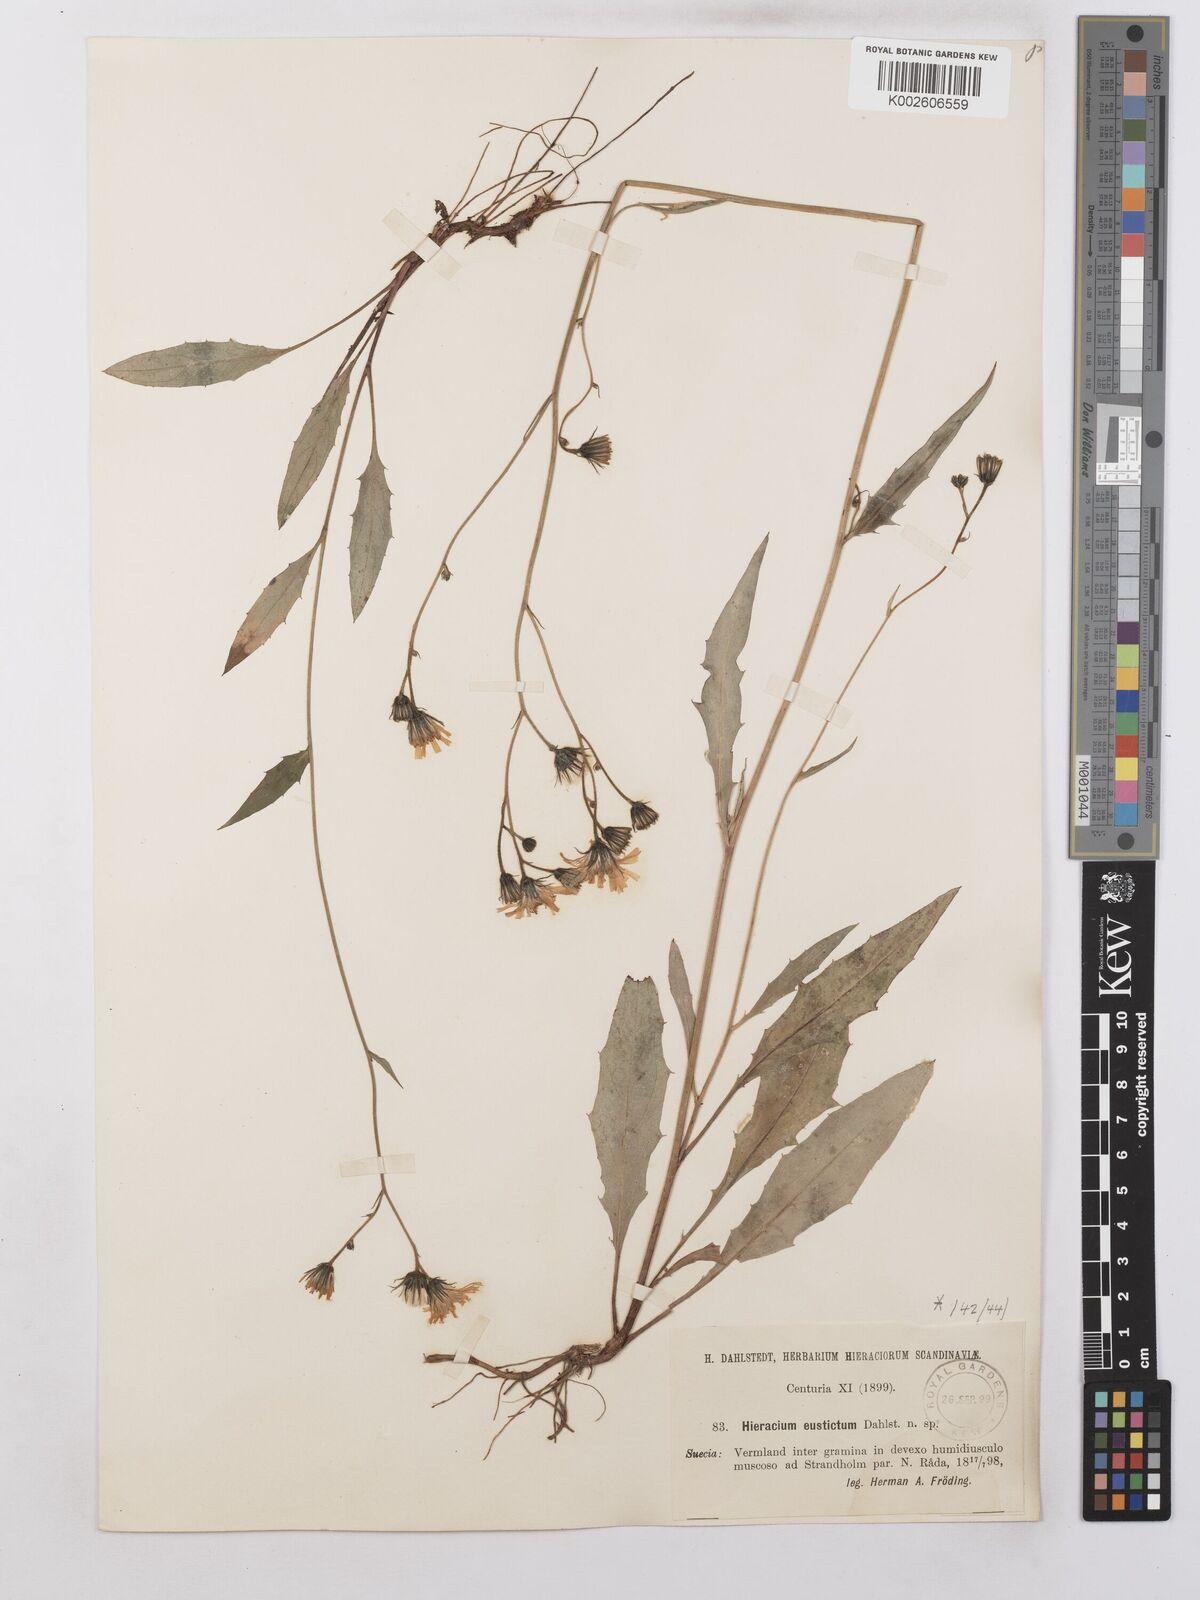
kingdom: Plantae
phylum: Tracheophyta
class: Magnoliopsida
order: Asterales
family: Asteraceae
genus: Hieracium
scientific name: Hieracium lachenalii
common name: Common hawkweed
